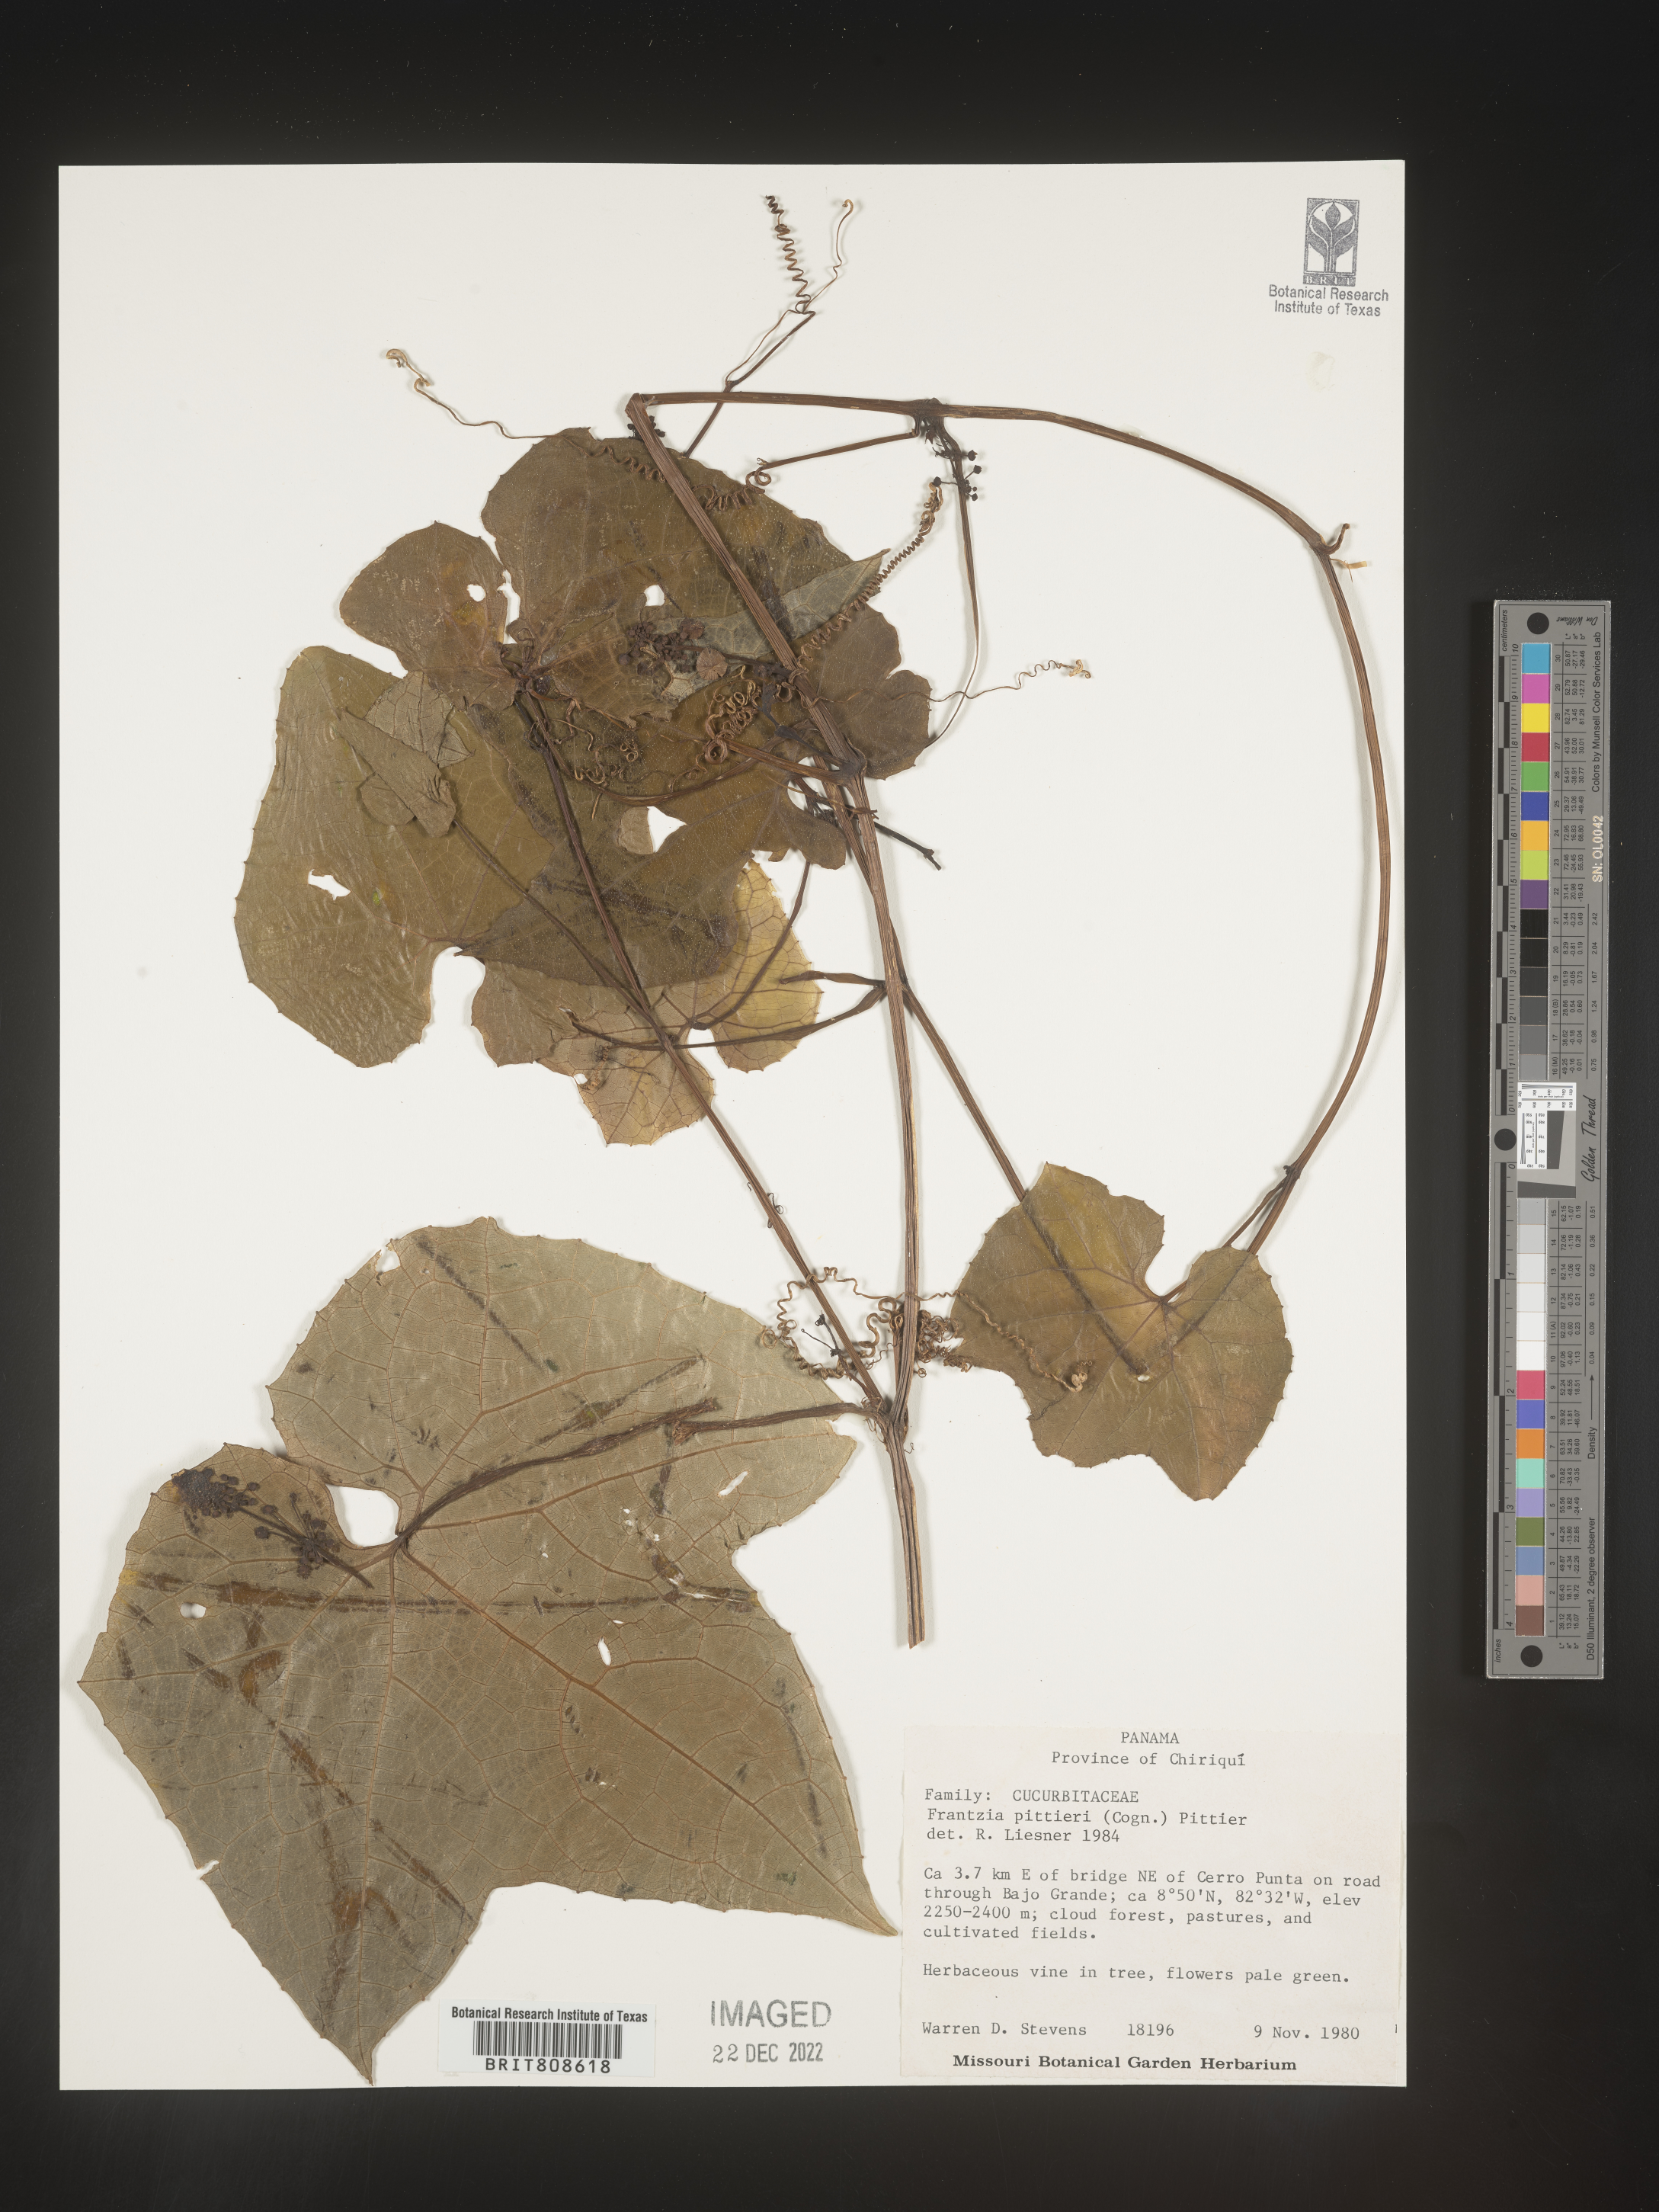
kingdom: Plantae
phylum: Tracheophyta
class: Magnoliopsida
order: Cucurbitales
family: Cucurbitaceae
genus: Frantzia
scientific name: Frantzia
